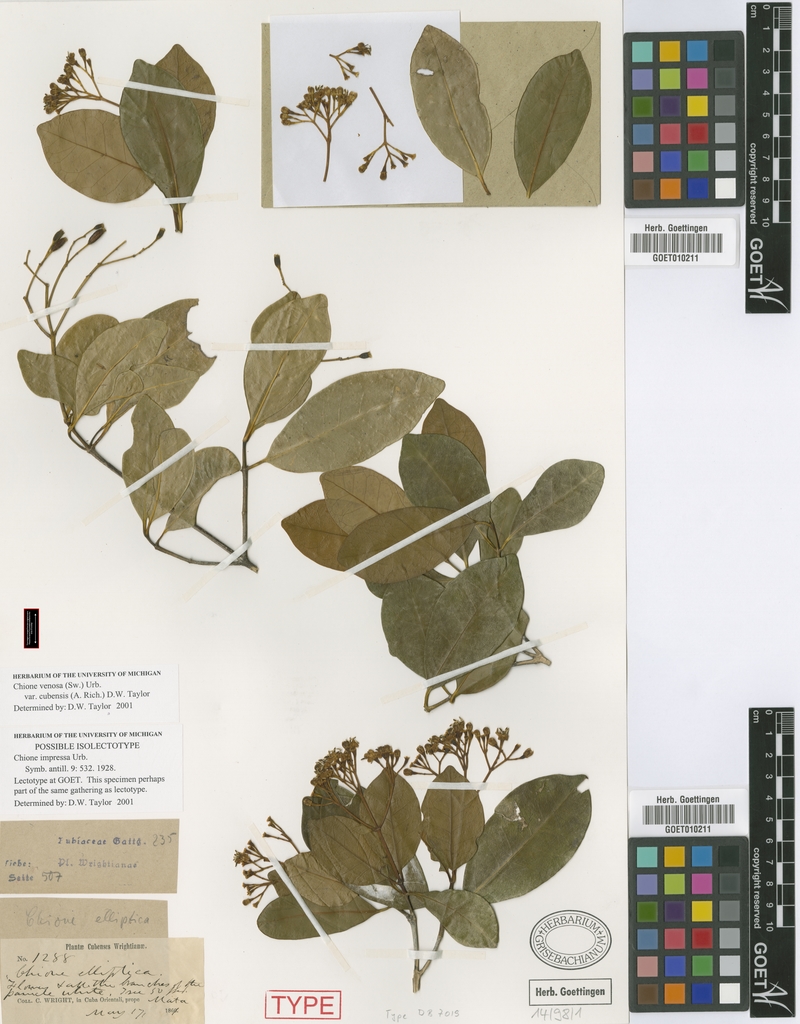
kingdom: Plantae
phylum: Tracheophyta
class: Magnoliopsida
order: Gentianales
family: Rubiaceae
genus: Chione
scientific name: Chione venosa
